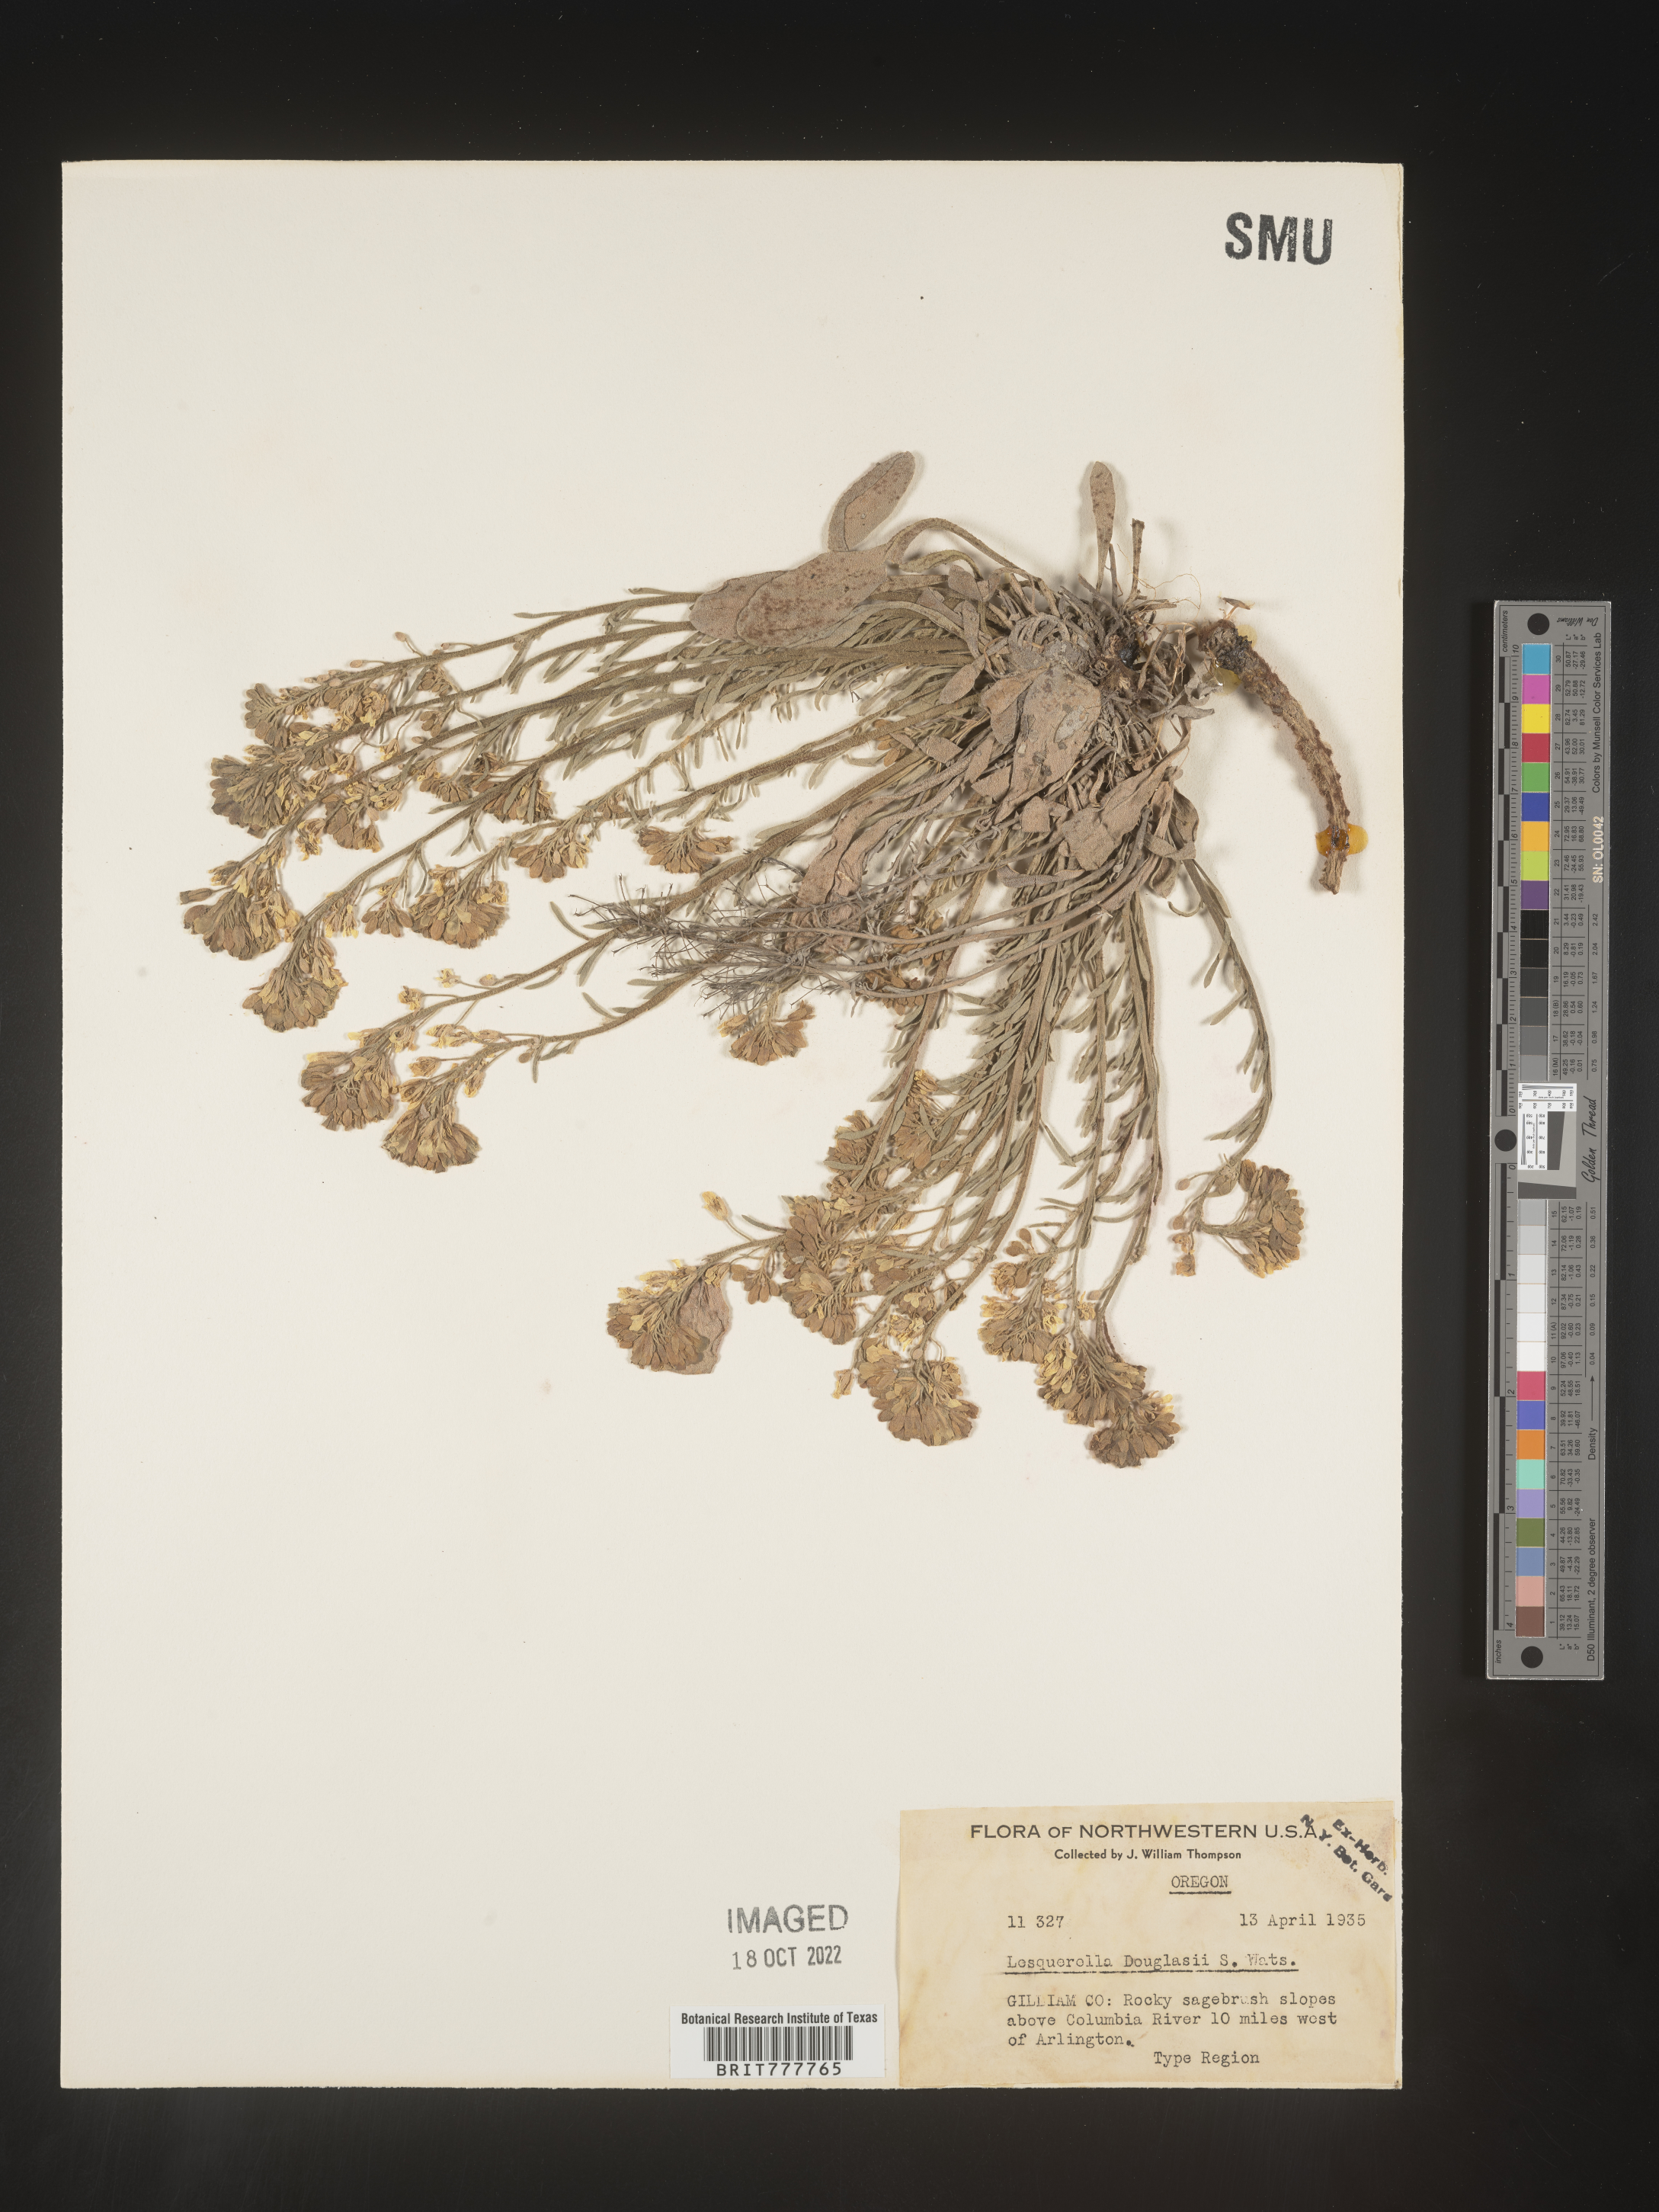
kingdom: Chromista
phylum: Cercozoa
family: Psammonobiotidae
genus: Lesquerella
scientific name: Lesquerella
